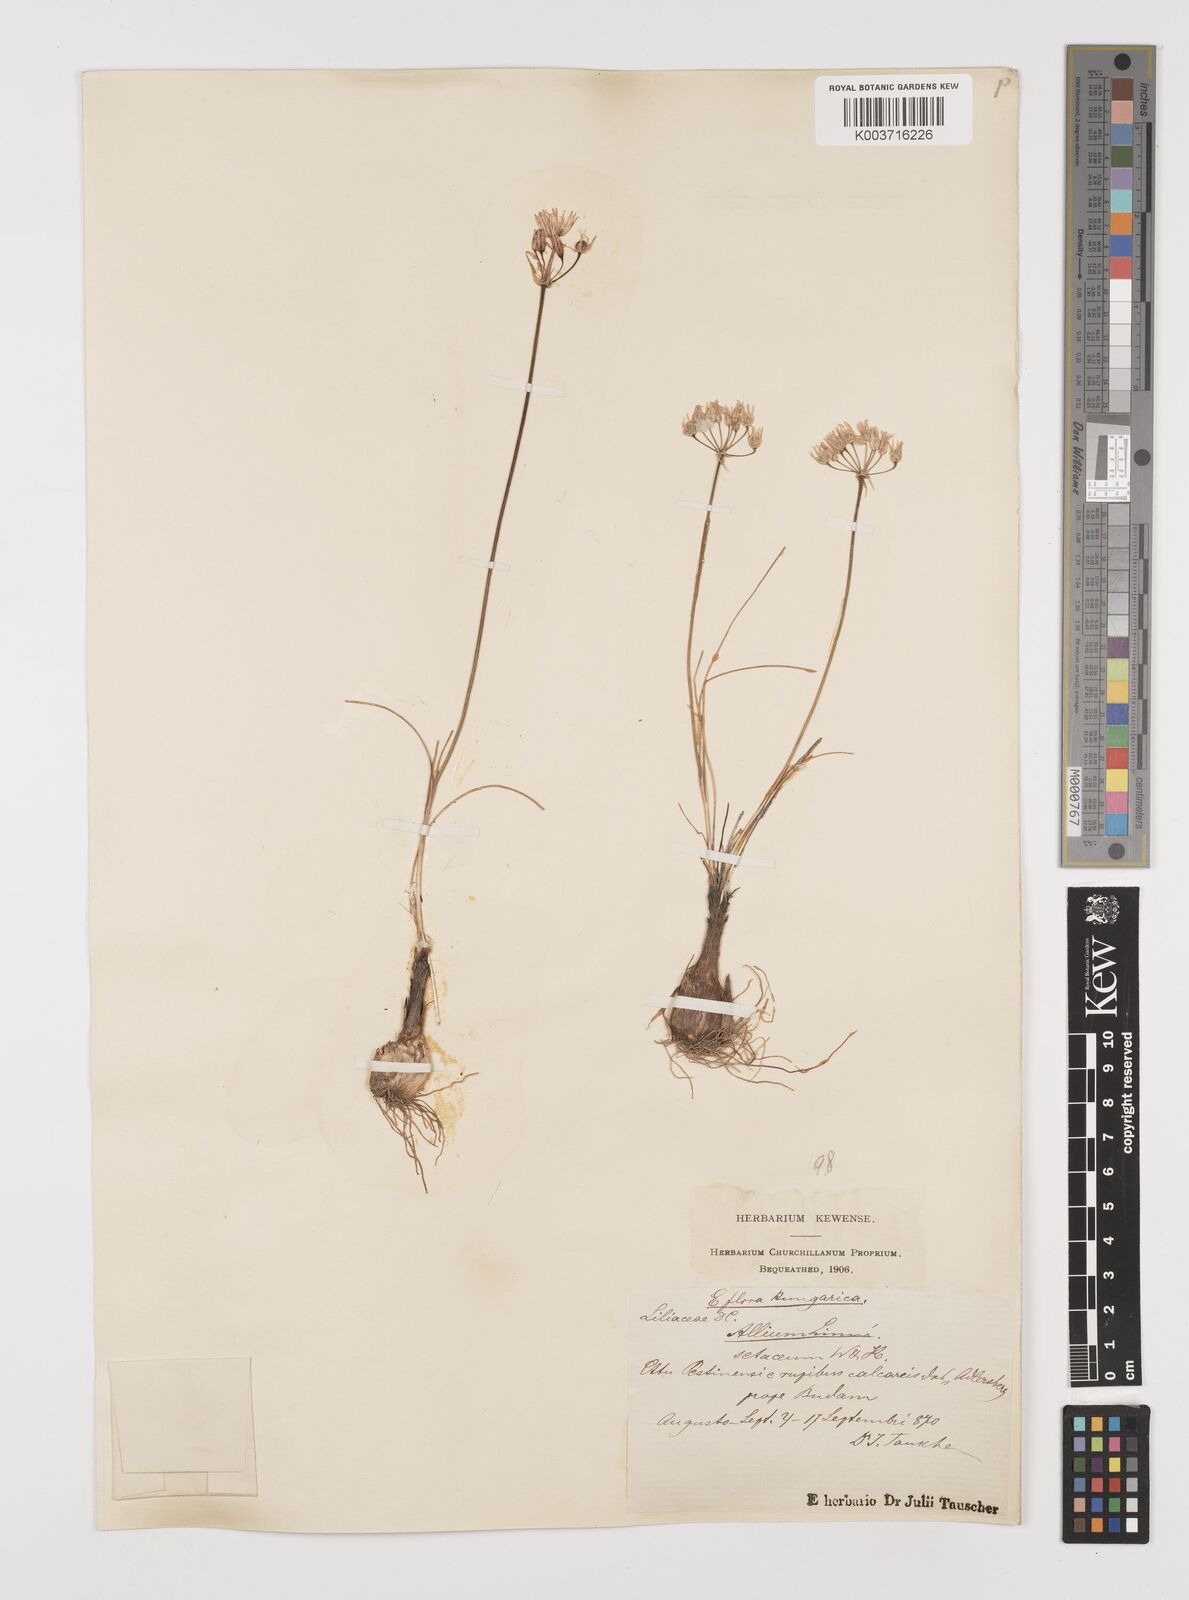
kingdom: Plantae
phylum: Tracheophyta
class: Liliopsida
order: Asparagales
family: Amaryllidaceae
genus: Allium
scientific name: Allium moschatum
